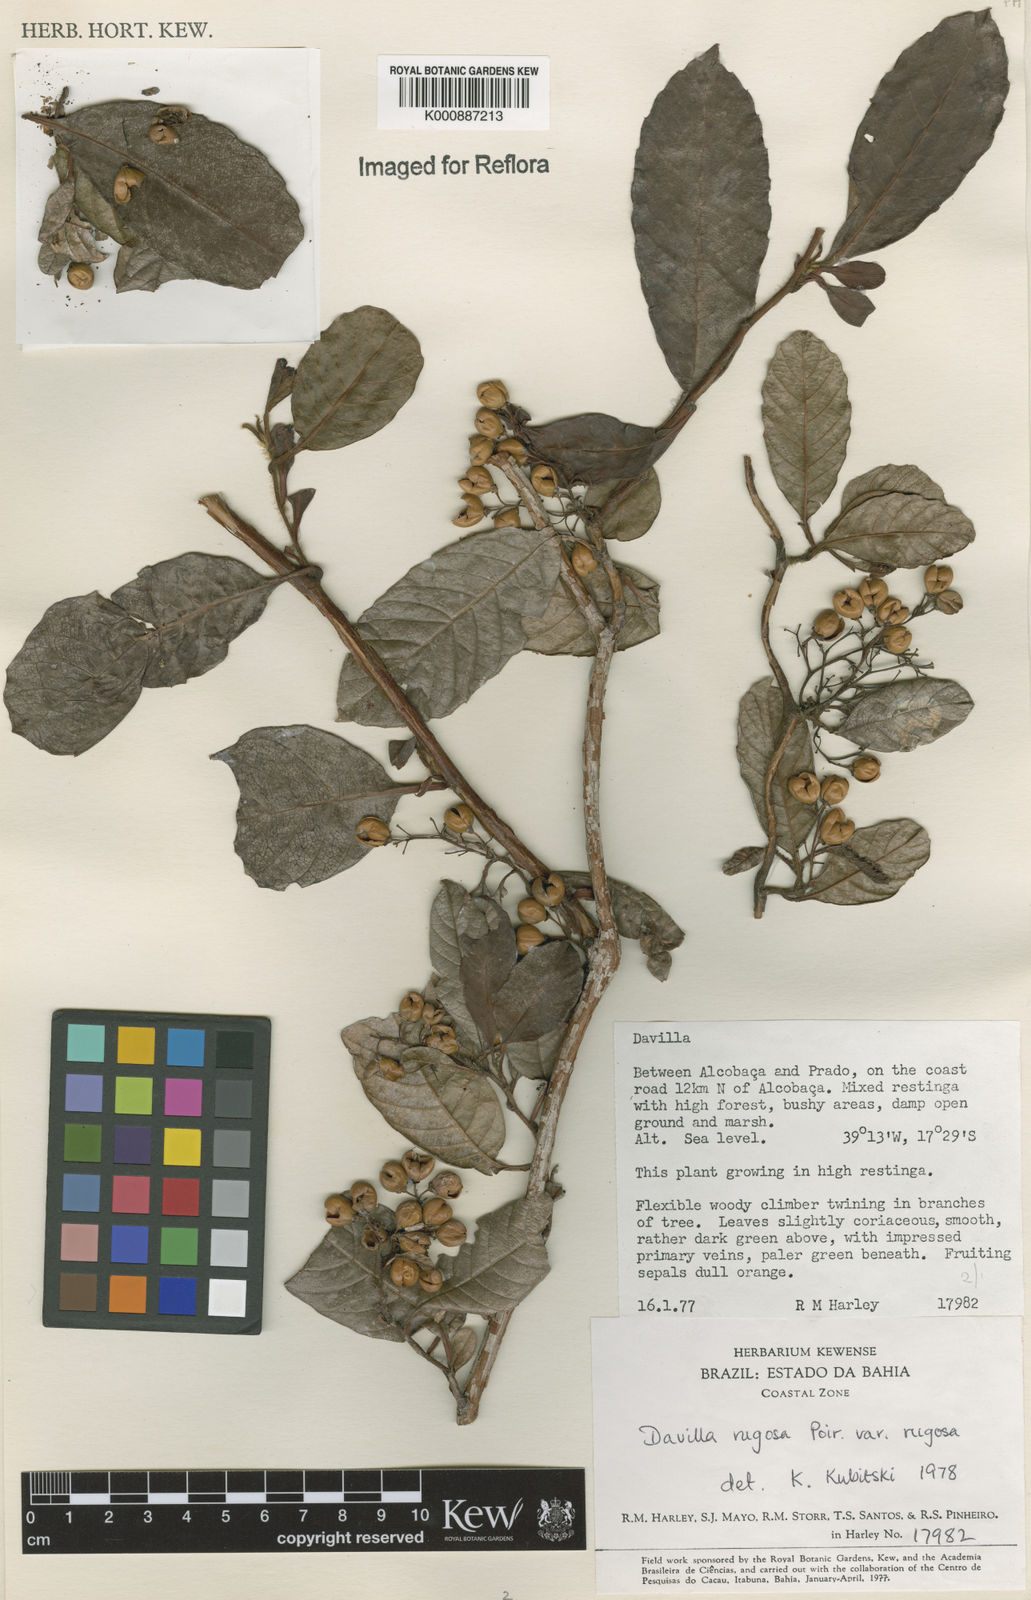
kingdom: Plantae
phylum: Tracheophyta
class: Magnoliopsida
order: Dilleniales
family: Dilleniaceae
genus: Davilla
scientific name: Davilla rugosa
